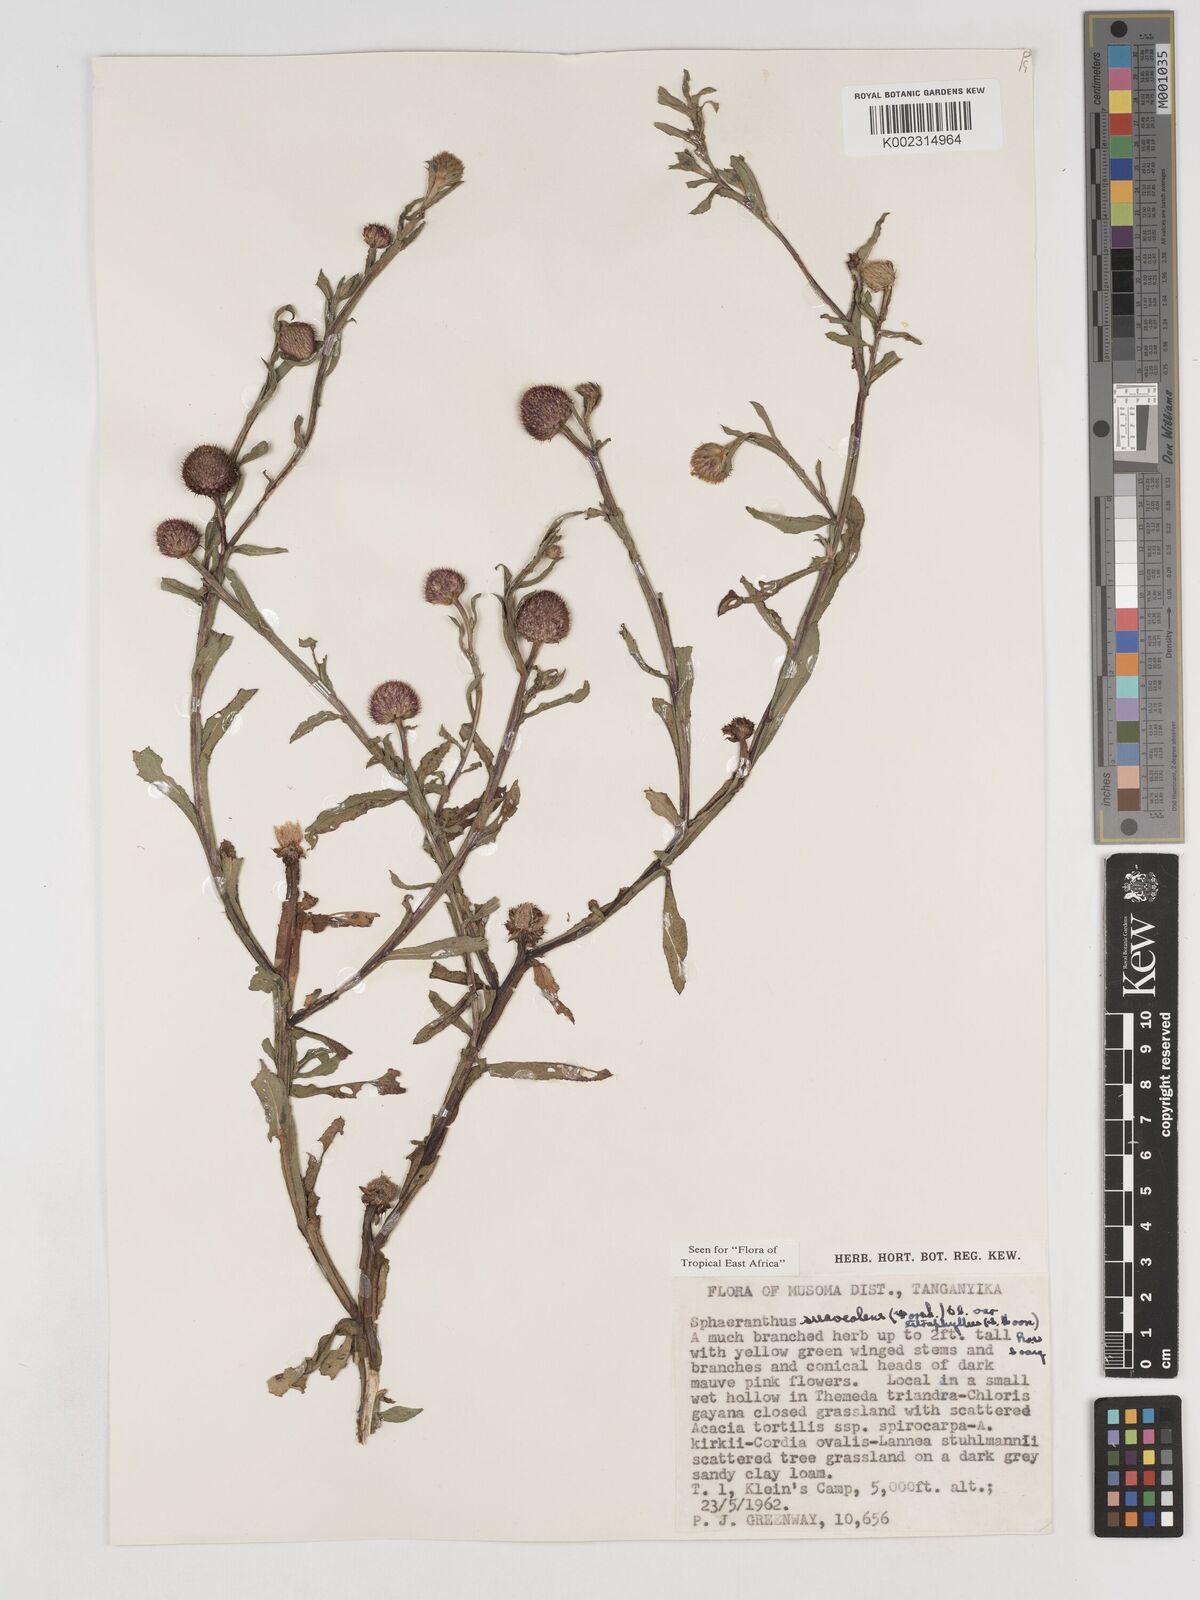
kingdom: Plantae
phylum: Tracheophyta
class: Magnoliopsida
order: Asterales
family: Asteraceae
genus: Sphaeranthus
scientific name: Sphaeranthus suaveolens
